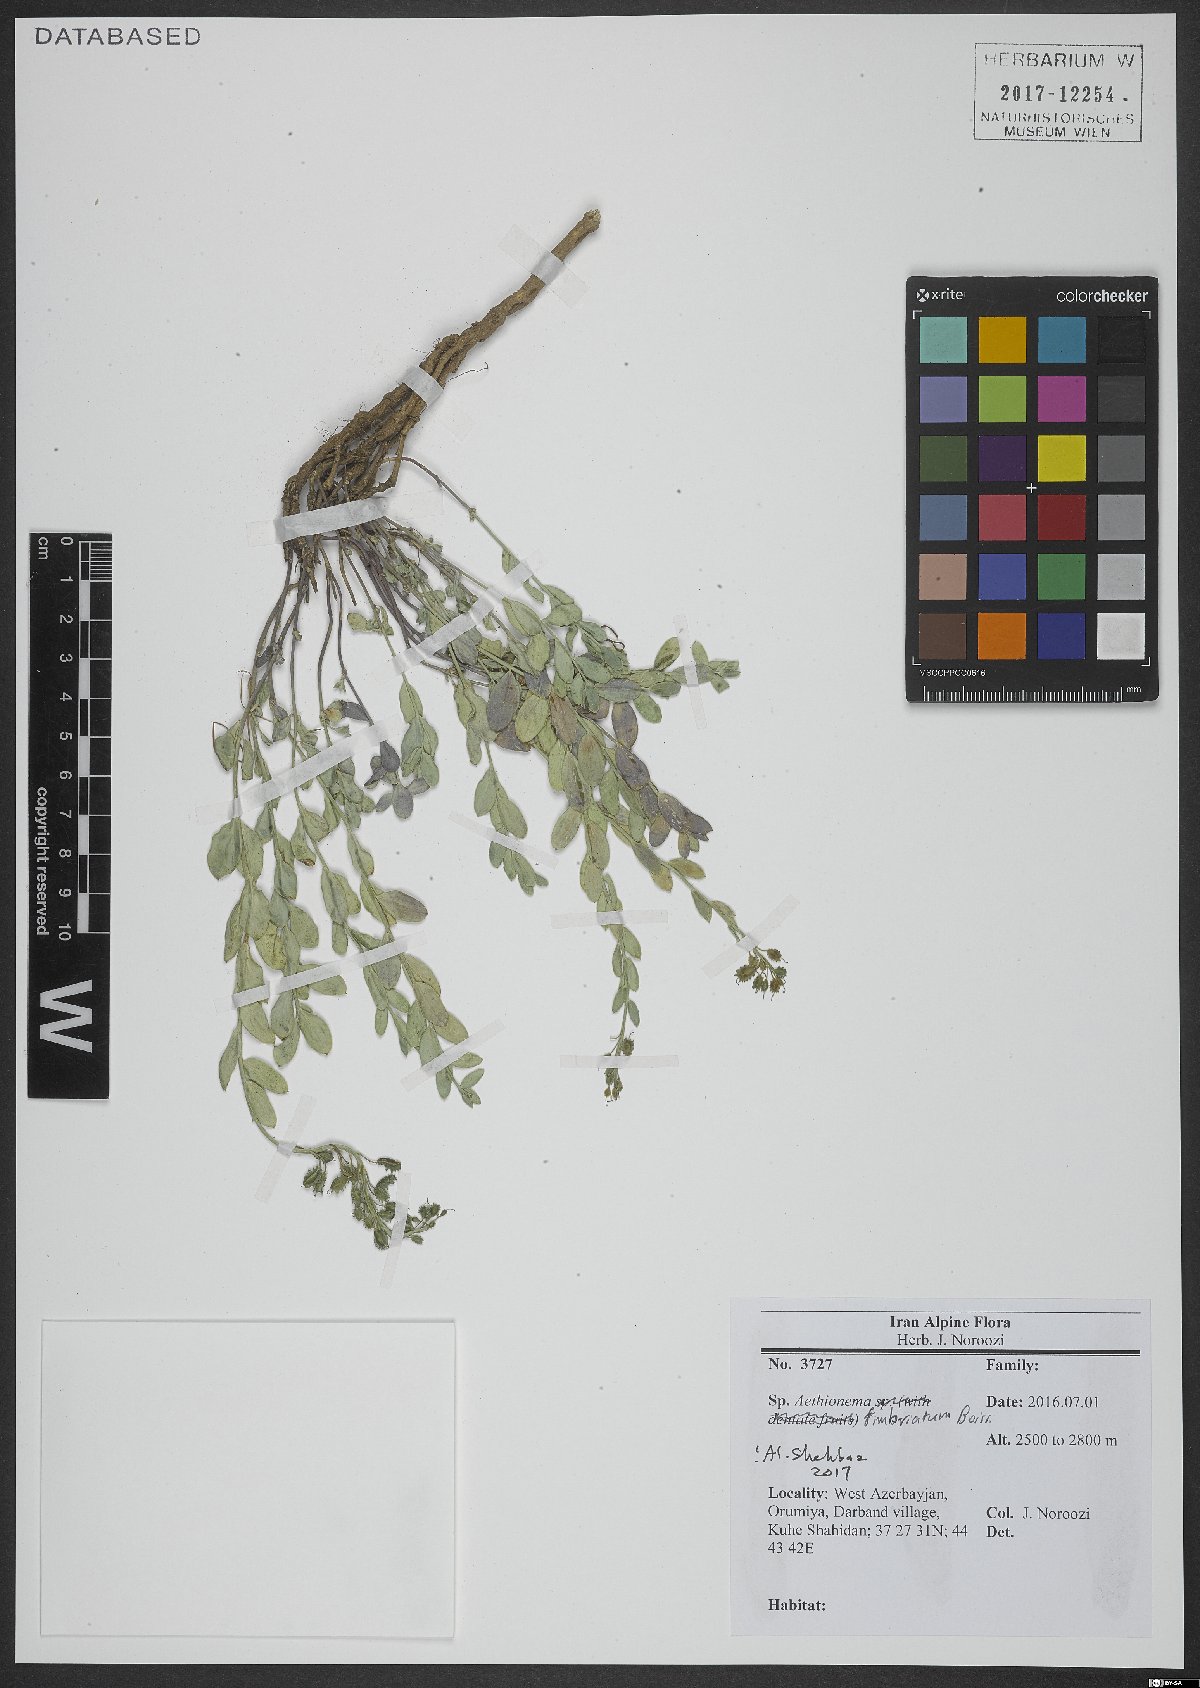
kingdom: Plantae
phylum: Tracheophyta
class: Magnoliopsida
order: Brassicales
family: Brassicaceae
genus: Aethionema
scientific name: Aethionema fimbriatum
